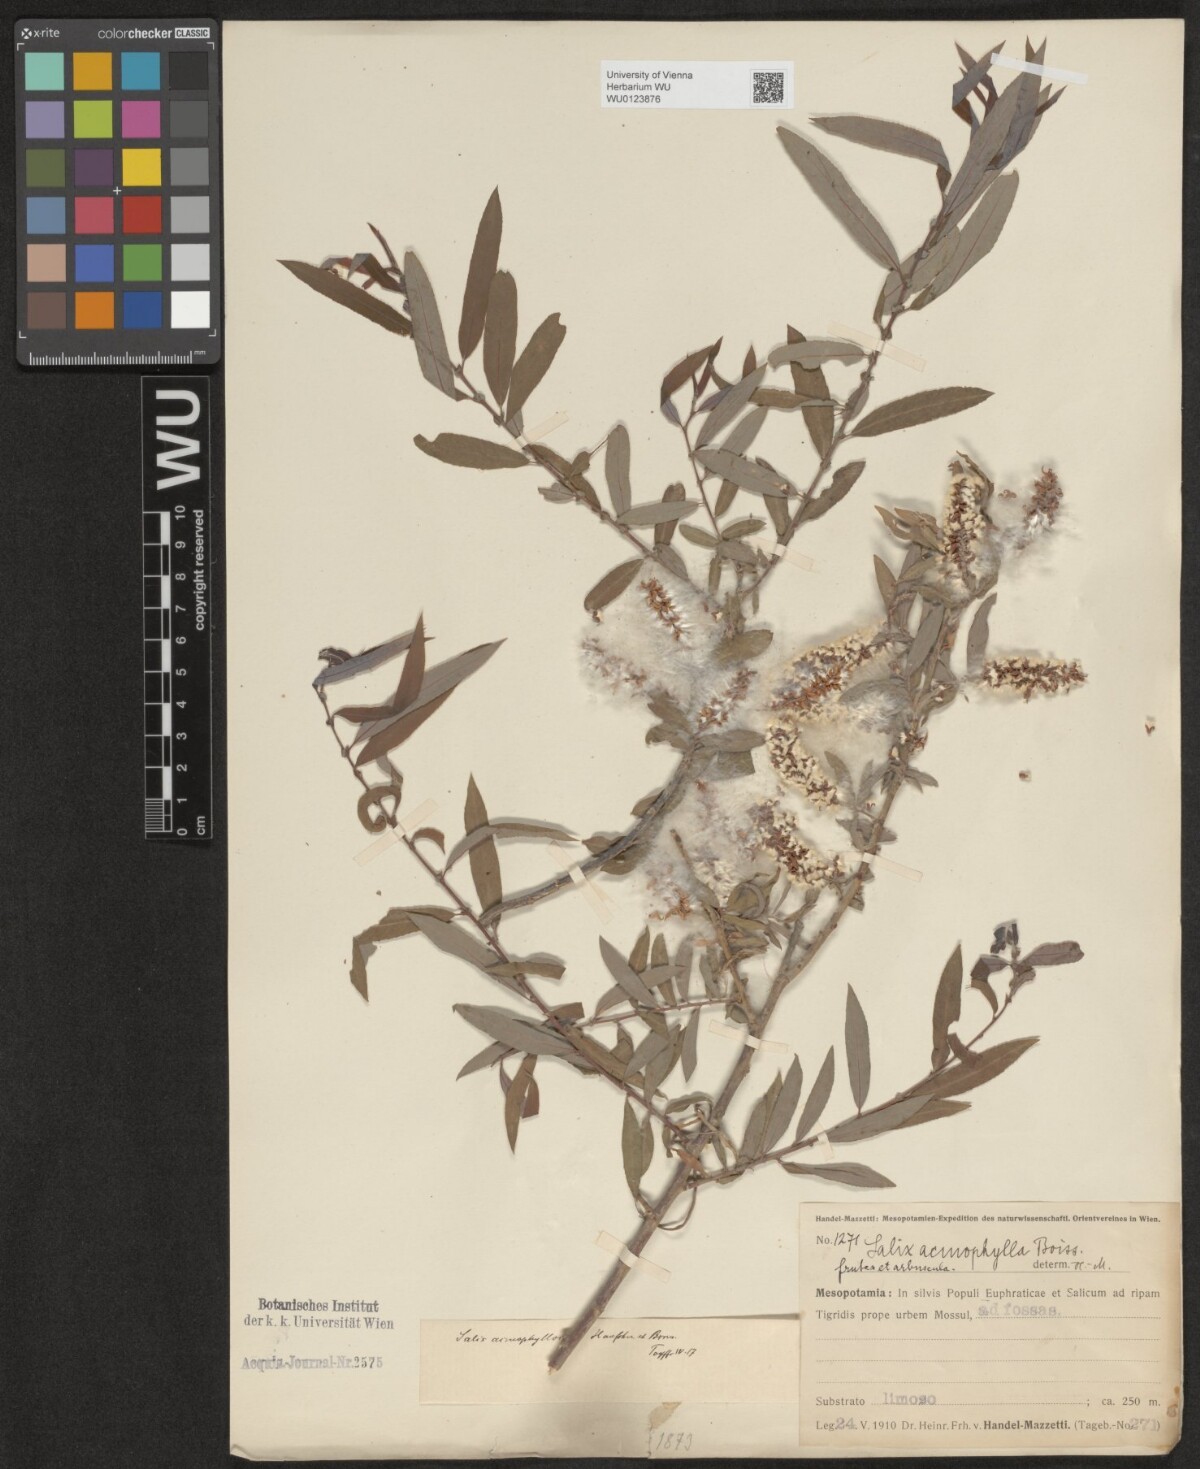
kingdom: Plantae
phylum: Tracheophyta
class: Magnoliopsida
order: Malpighiales
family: Salicaceae
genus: Salix
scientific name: Salix
